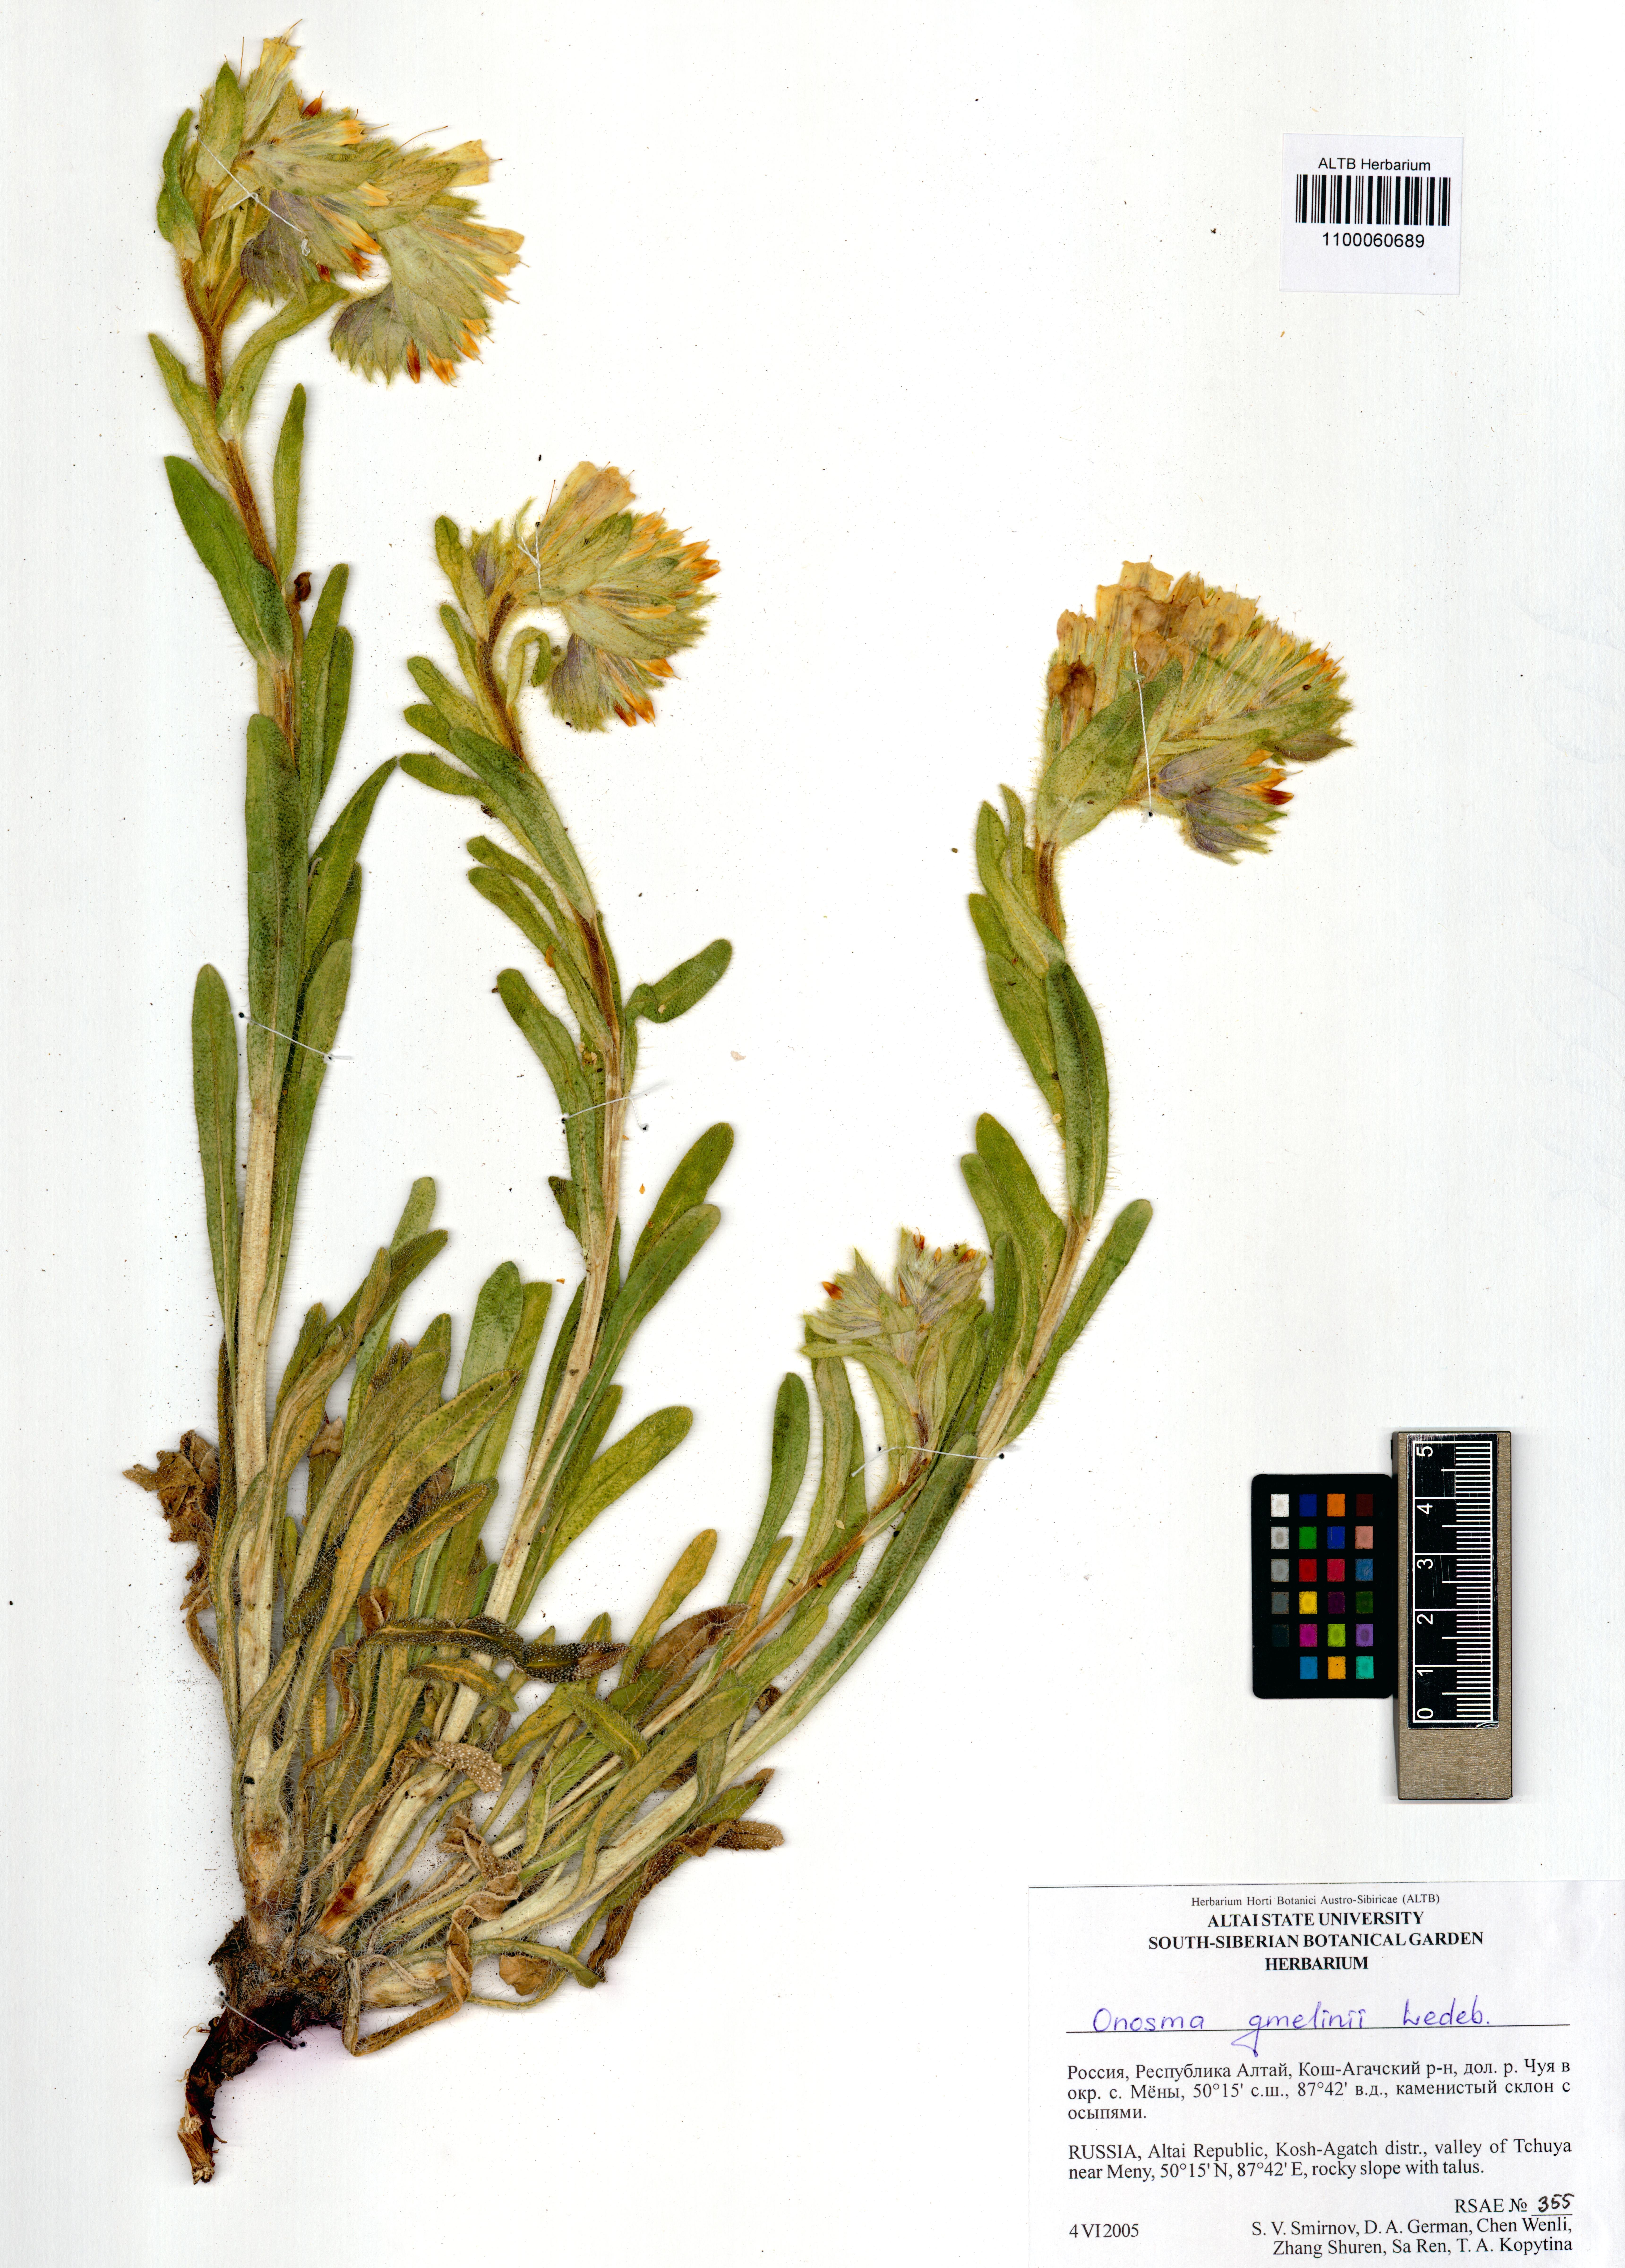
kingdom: Plantae
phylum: Tracheophyta
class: Magnoliopsida
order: Boraginales
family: Boraginaceae
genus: Onosma
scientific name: Onosma gmelinii
